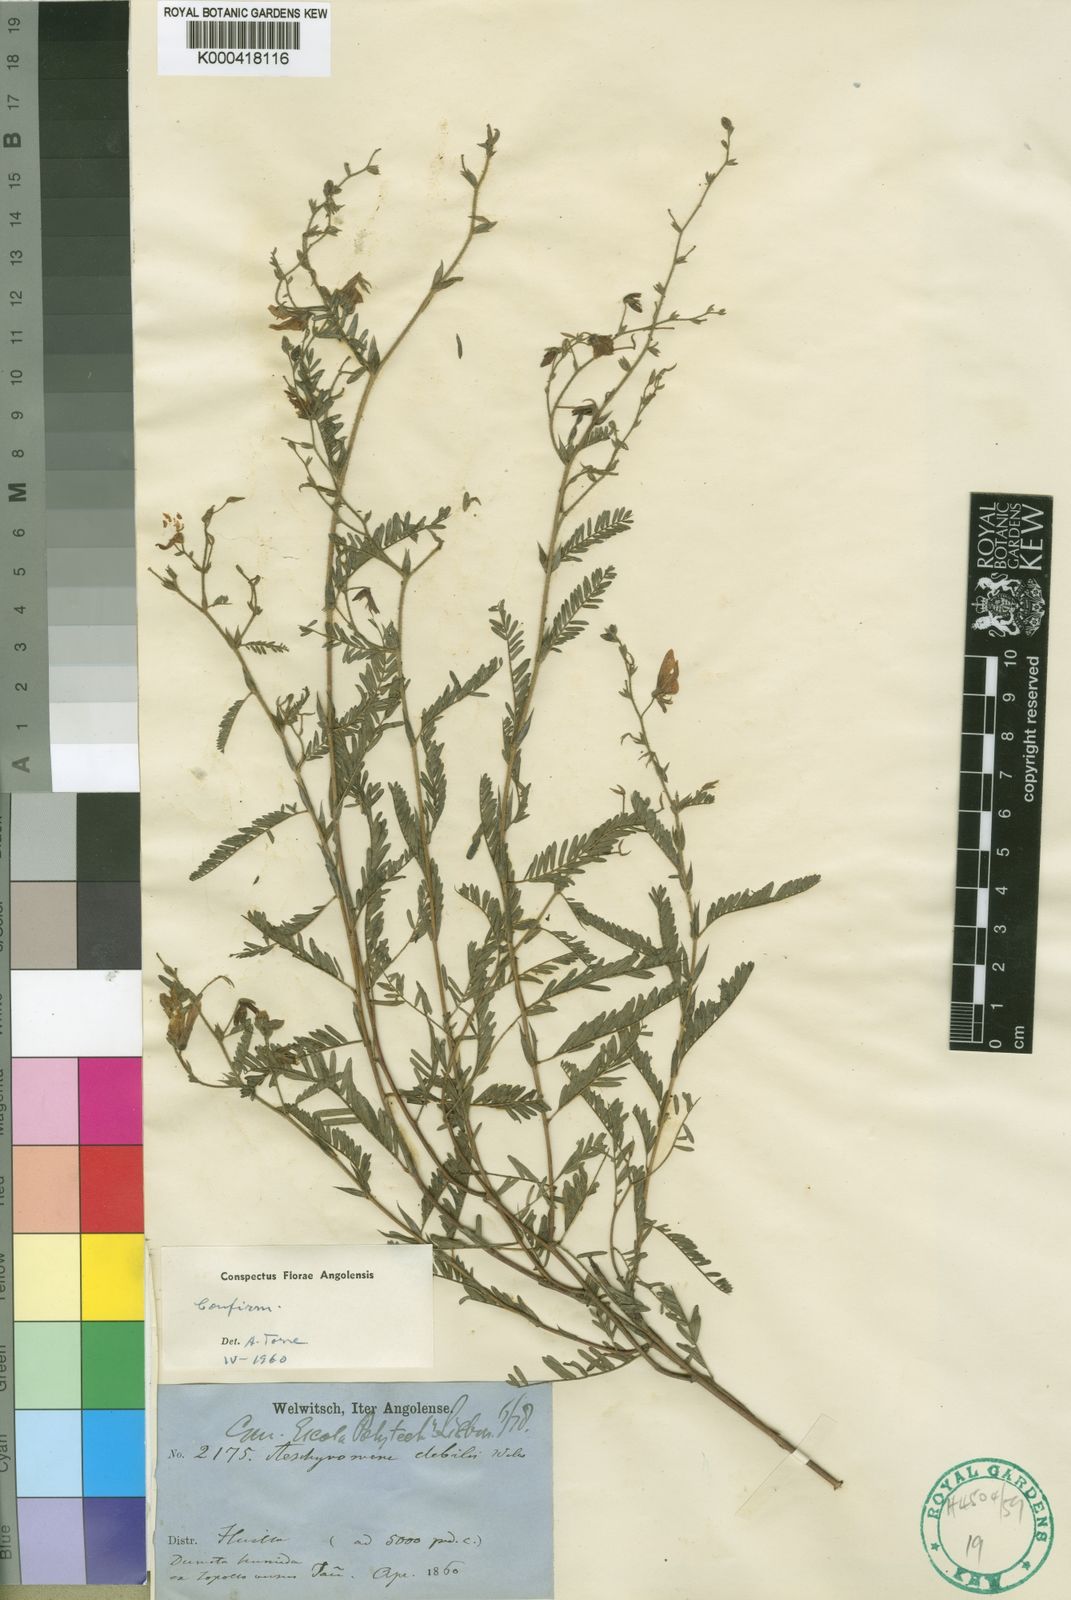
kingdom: Plantae
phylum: Tracheophyta
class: Magnoliopsida
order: Fabales
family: Fabaceae
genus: Aeschynomene
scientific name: Aeschynomene debilis
